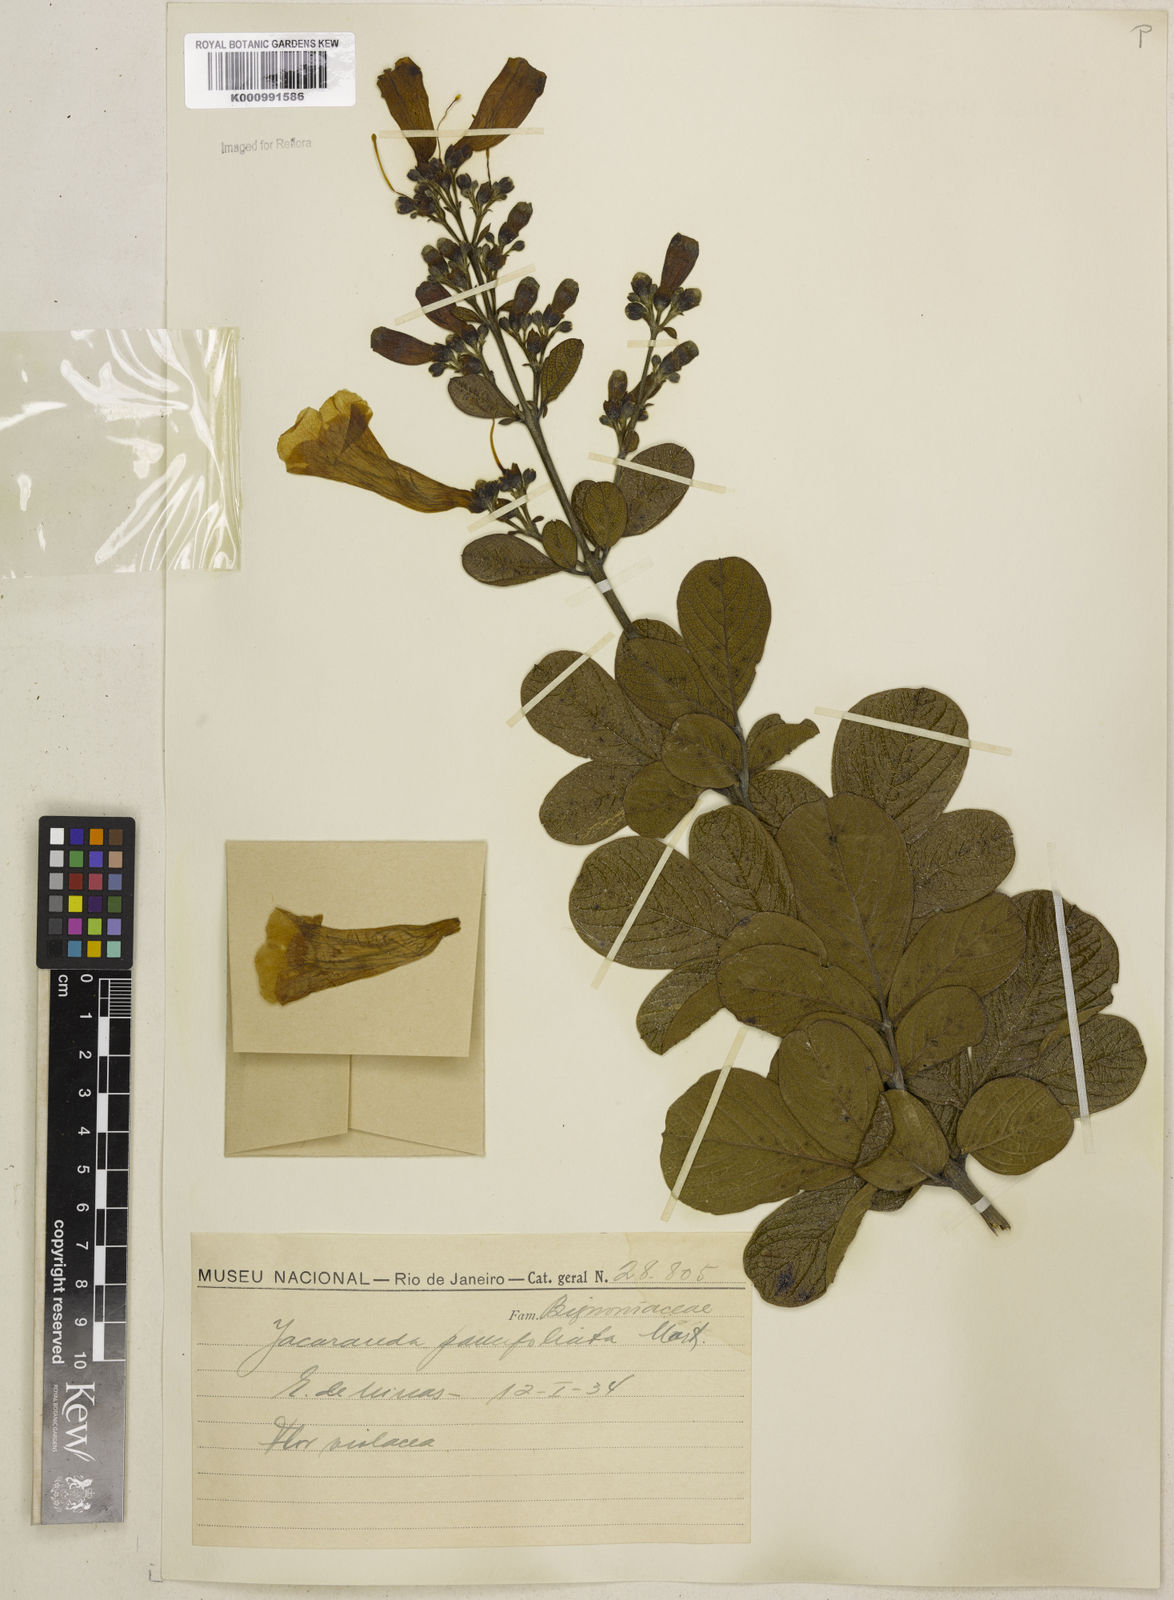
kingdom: Plantae
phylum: Tracheophyta
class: Magnoliopsida
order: Lamiales
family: Bignoniaceae
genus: Jacaranda
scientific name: Jacaranda
